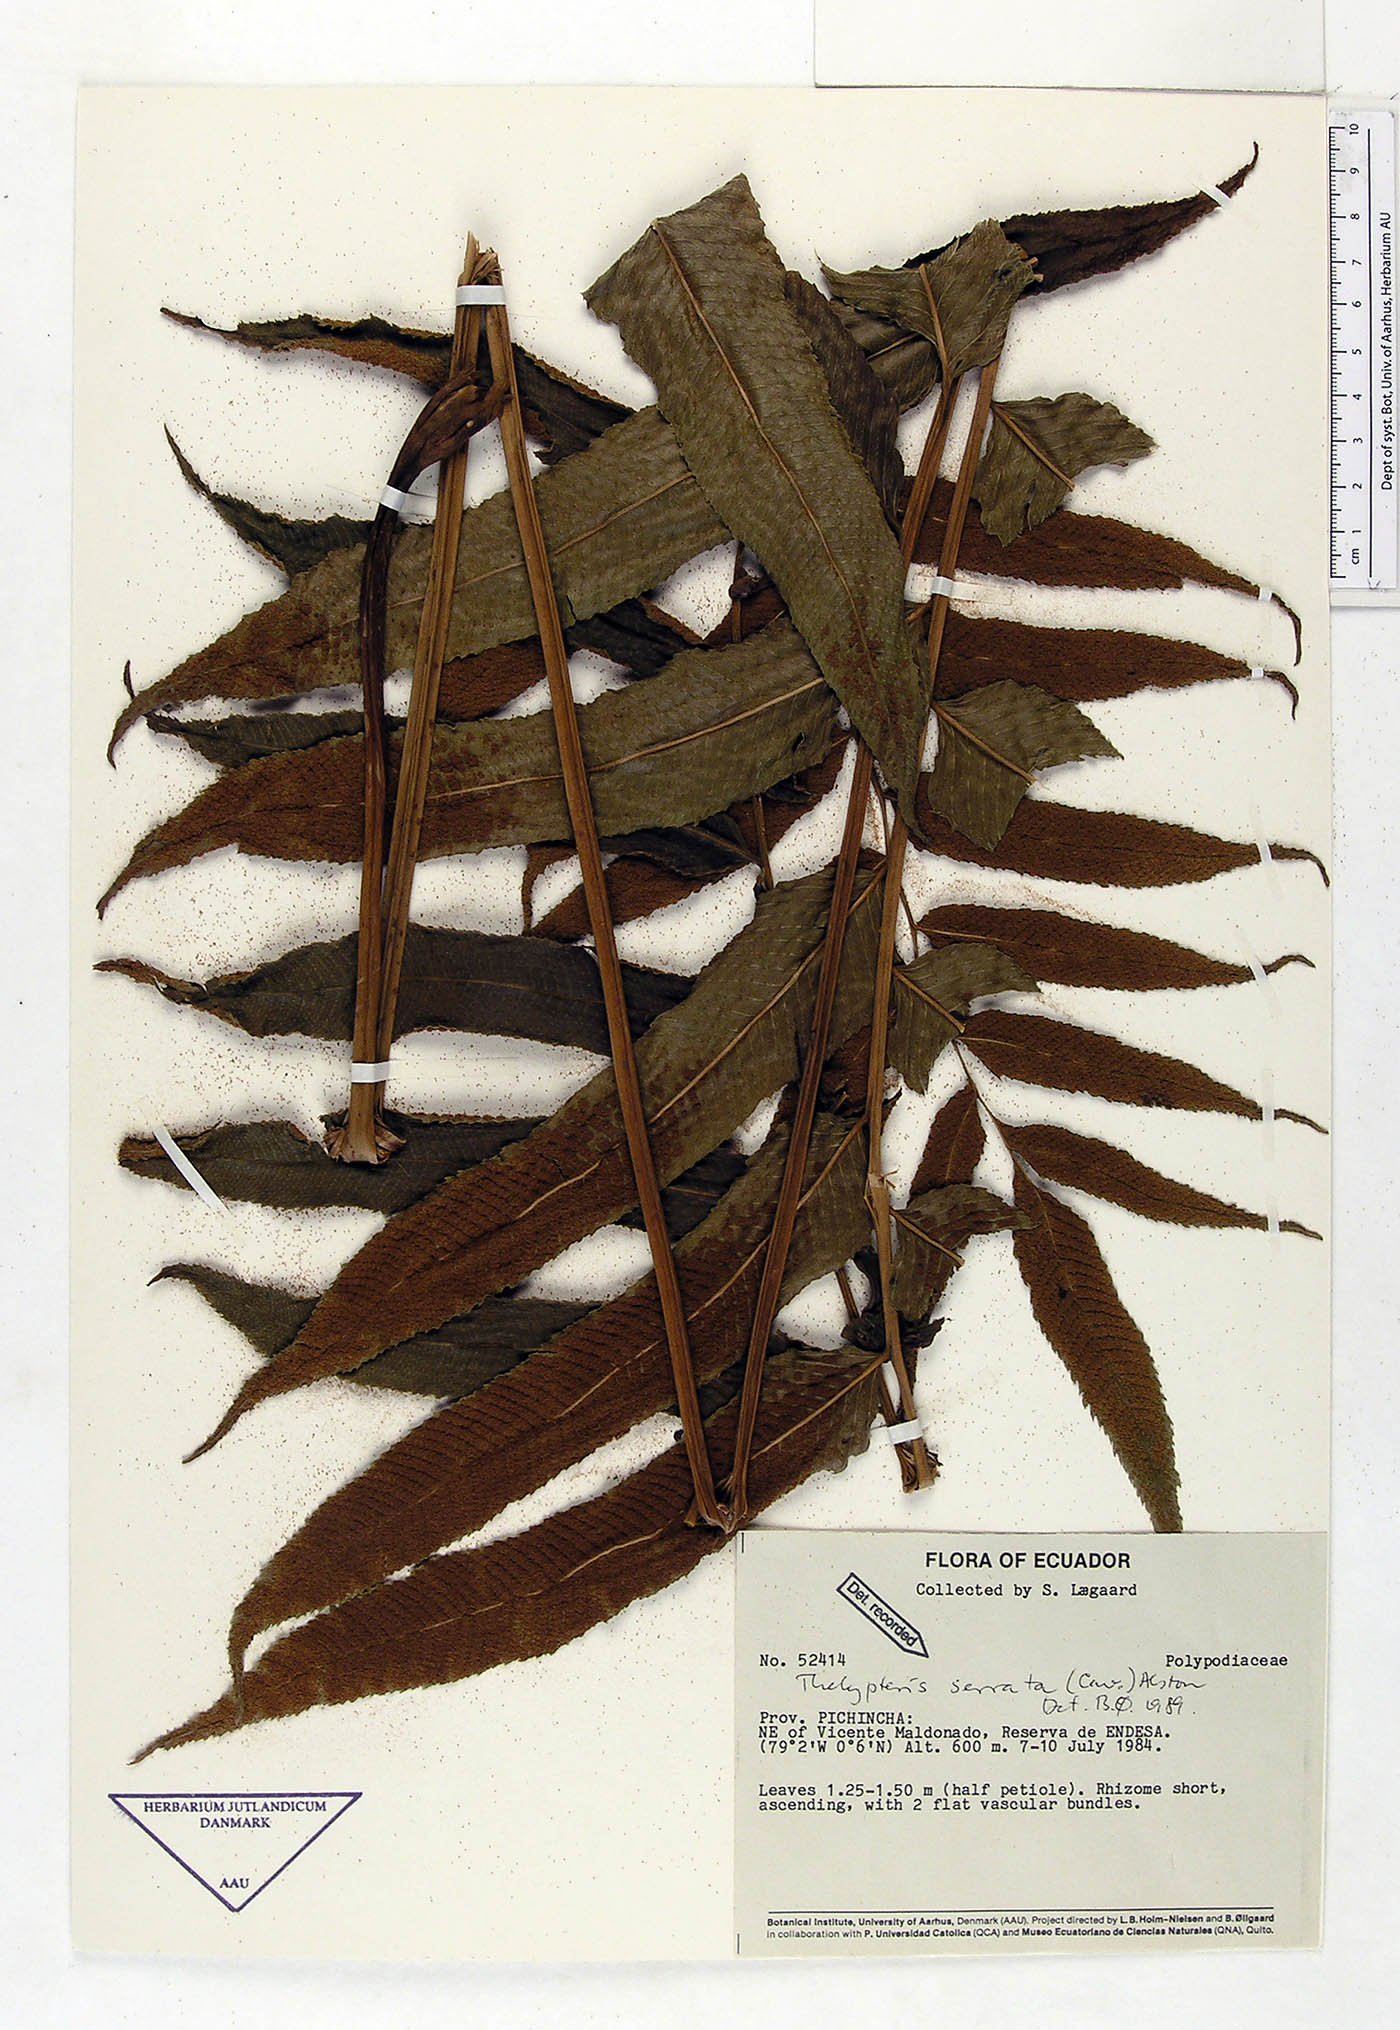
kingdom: Plantae
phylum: Tracheophyta
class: Polypodiopsida
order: Polypodiales
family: Thelypteridaceae
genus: Meniscium
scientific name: Meniscium serratum
